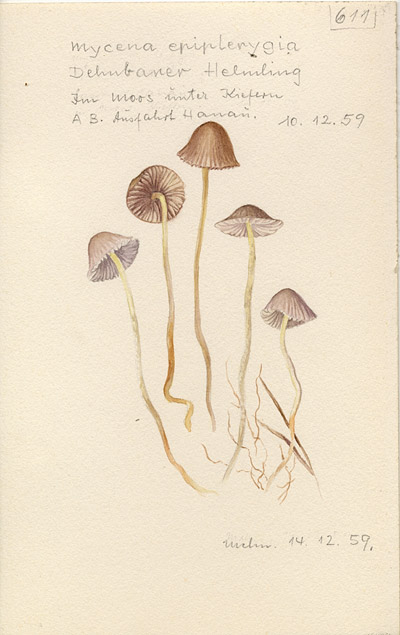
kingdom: Fungi
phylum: Basidiomycota
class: Agaricomycetes
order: Agaricales
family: Mycenaceae
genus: Mycena
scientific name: Mycena epipterygia
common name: Yellowleg bonnet
